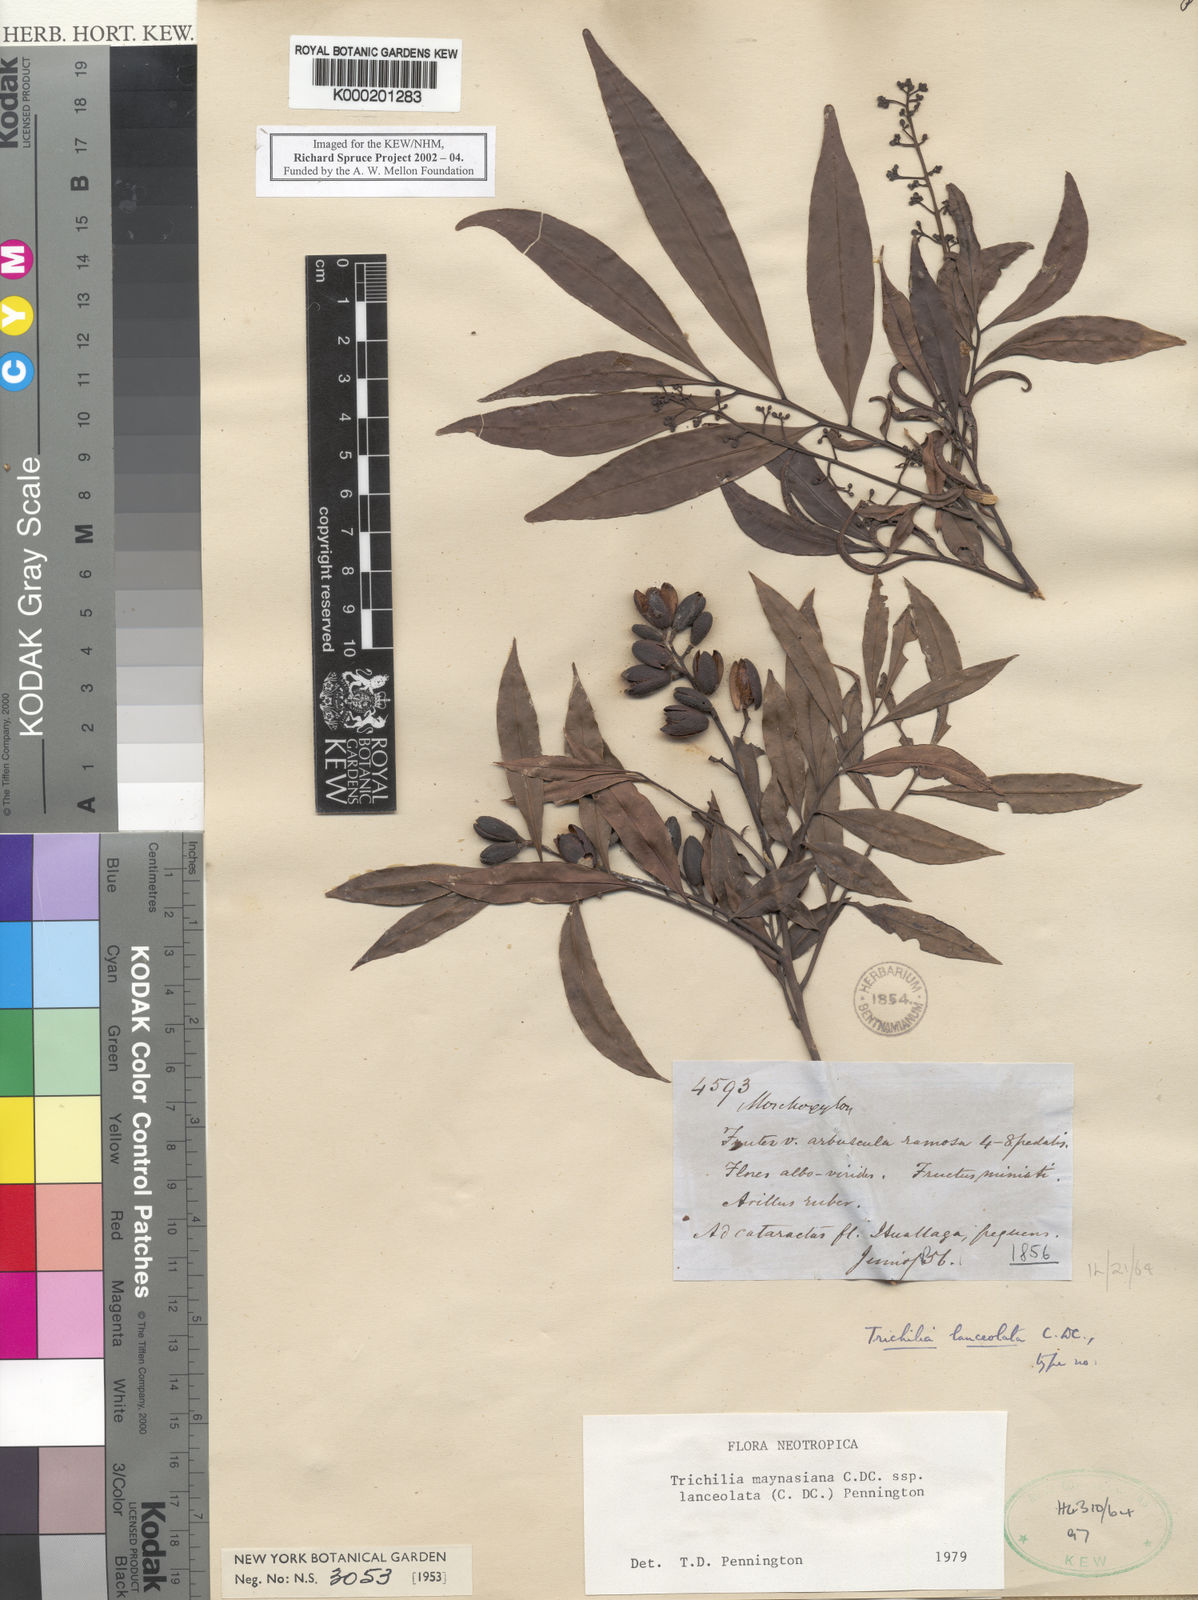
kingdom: Plantae
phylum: Tracheophyta
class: Magnoliopsida
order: Sapindales
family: Meliaceae
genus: Trichilia
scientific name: Trichilia maynasiana
